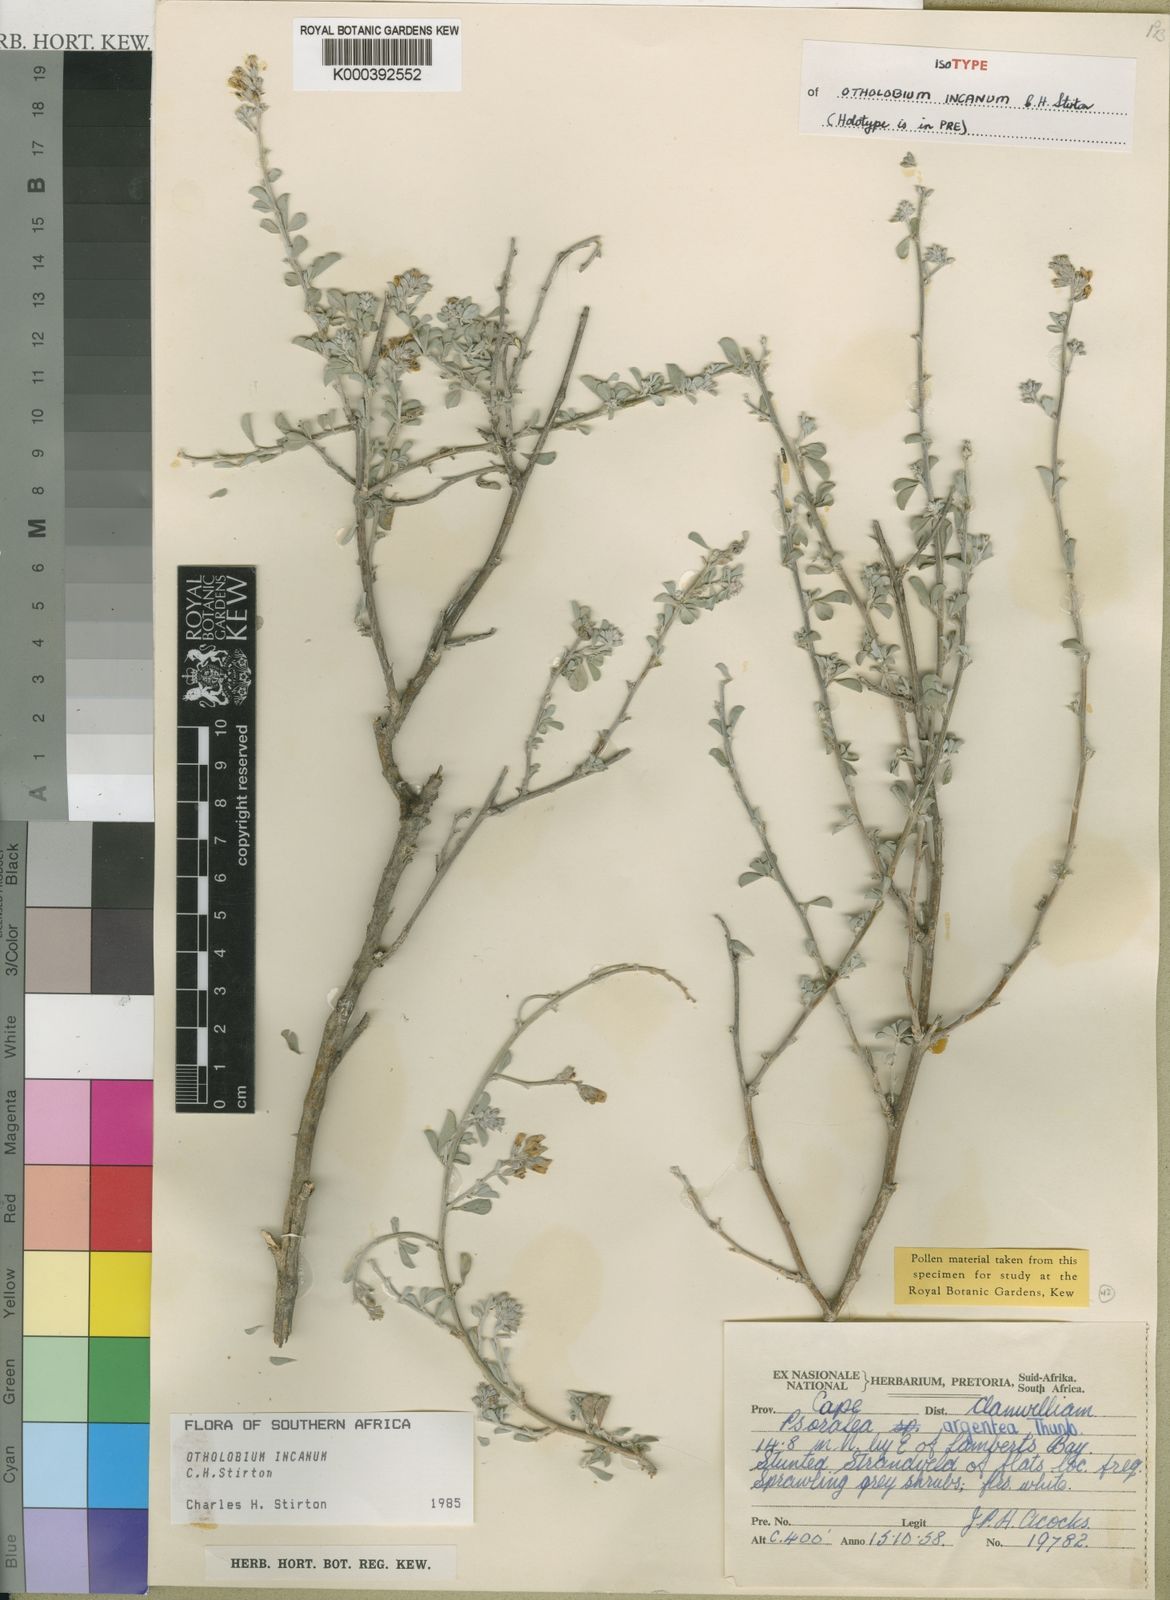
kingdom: Plantae
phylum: Tracheophyta
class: Magnoliopsida
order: Fabales
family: Fabaceae
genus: Psoralea
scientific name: Psoralea Otholobium incanum
